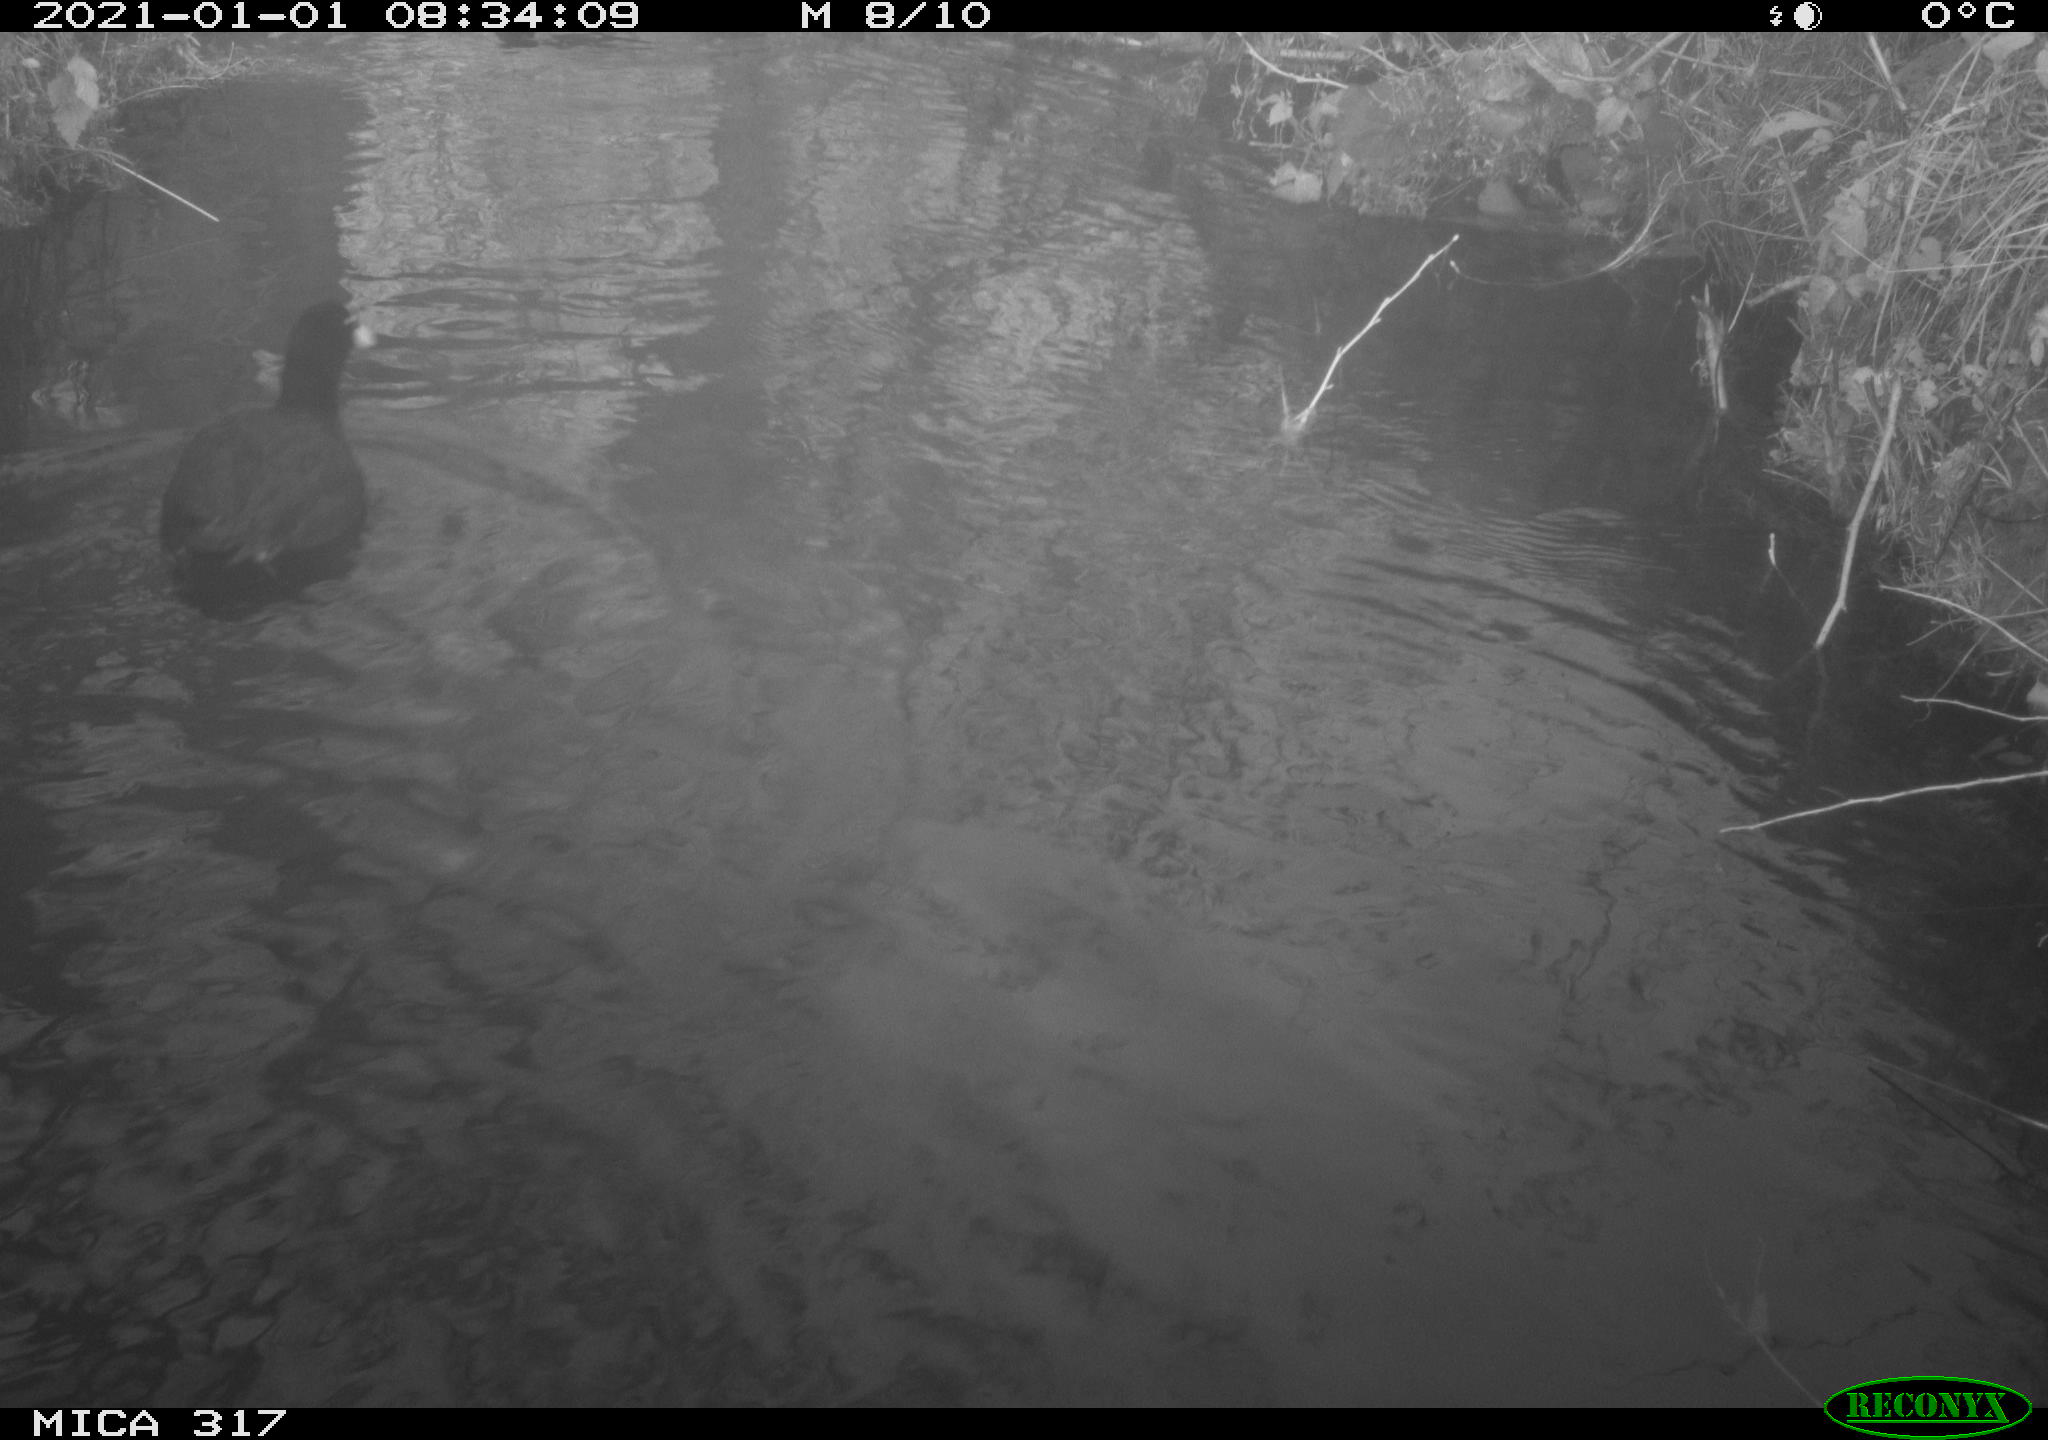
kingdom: Animalia
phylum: Chordata
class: Aves
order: Gruiformes
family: Rallidae
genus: Fulica
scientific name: Fulica atra
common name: Eurasian coot
